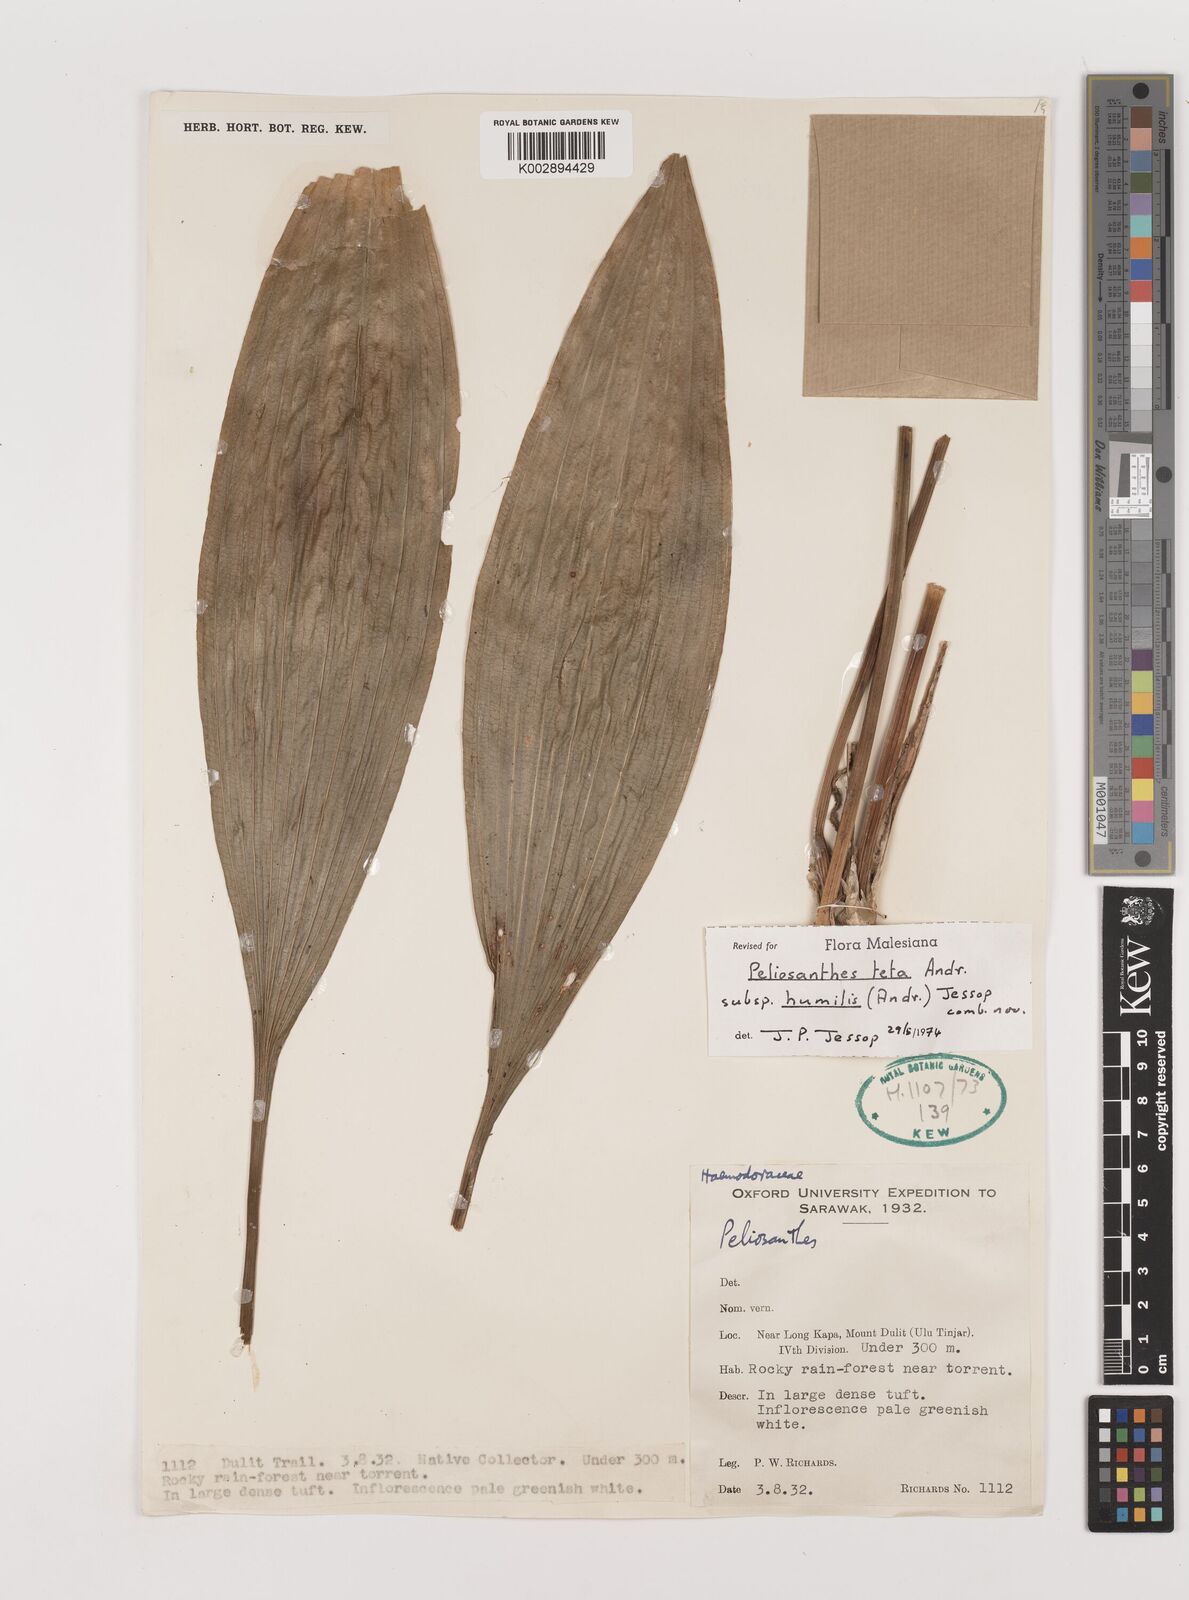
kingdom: Plantae
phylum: Tracheophyta
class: Liliopsida
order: Asparagales
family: Asparagaceae
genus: Peliosanthes
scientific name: Peliosanthes teta
